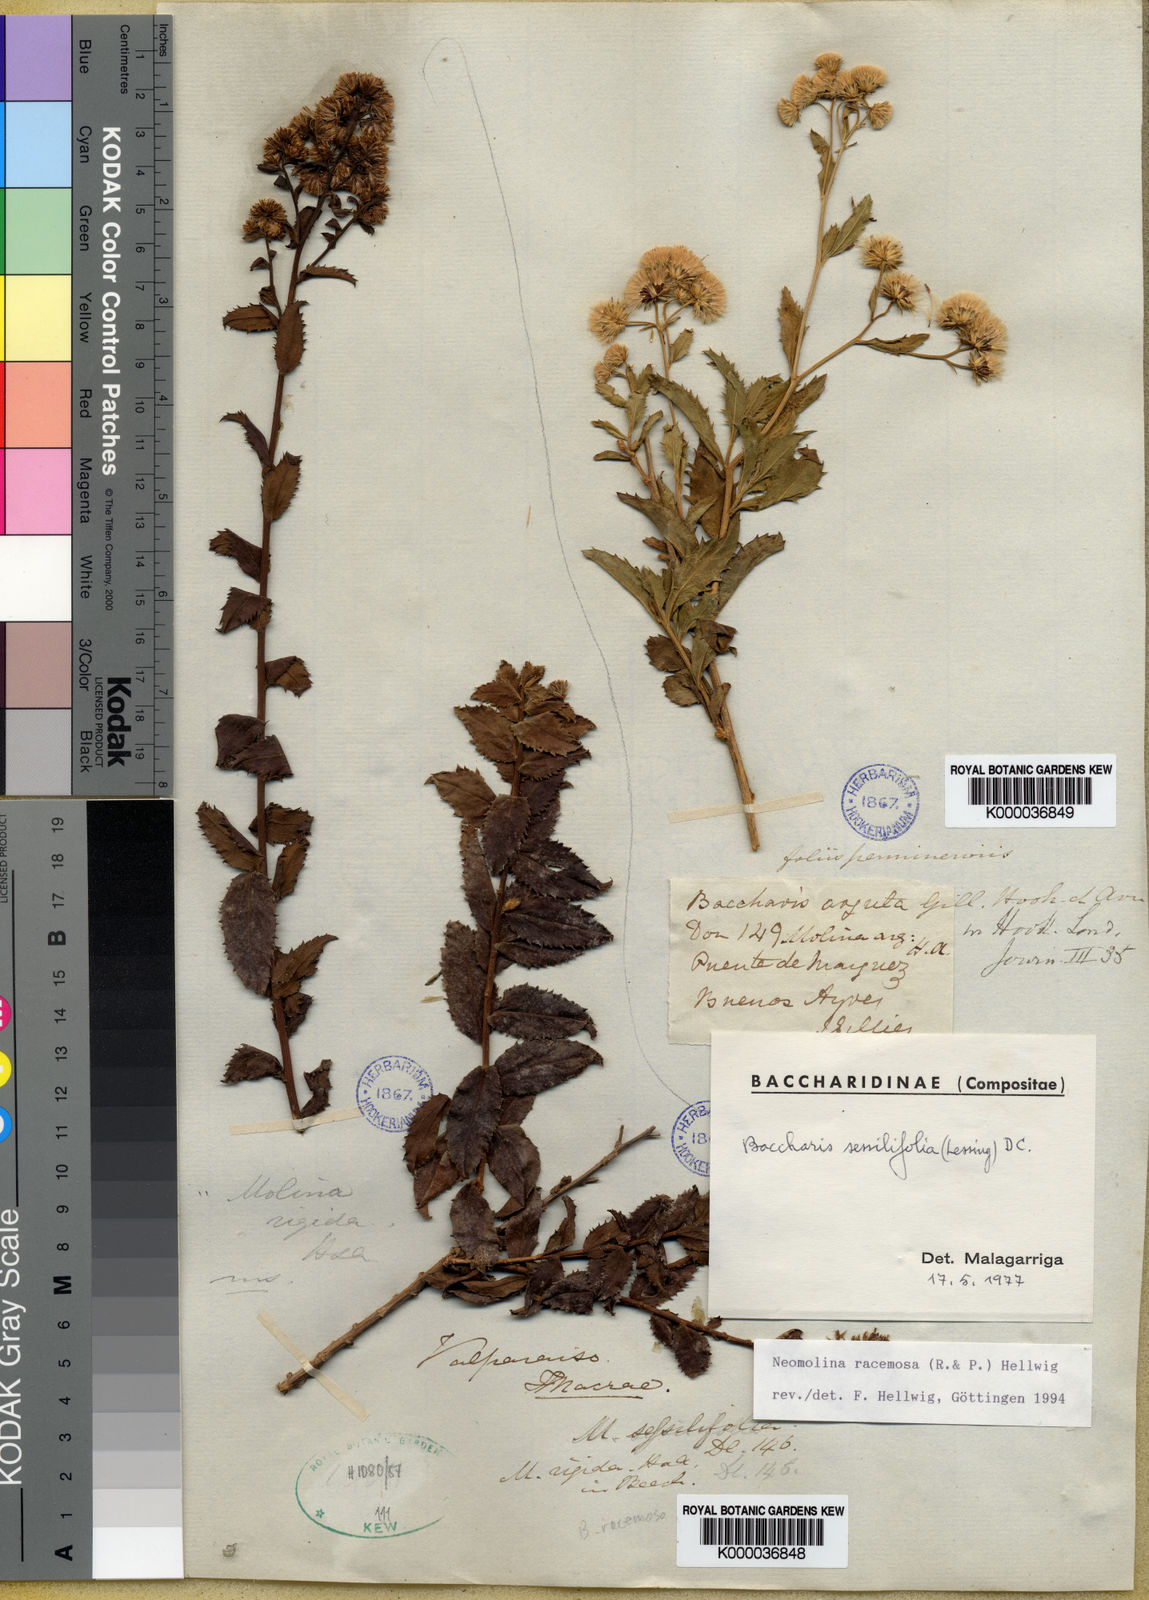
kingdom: Plantae
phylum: Tracheophyta
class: Magnoliopsida
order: Asterales
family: Asteraceae
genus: Baccharis
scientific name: Baccharis racemosa
